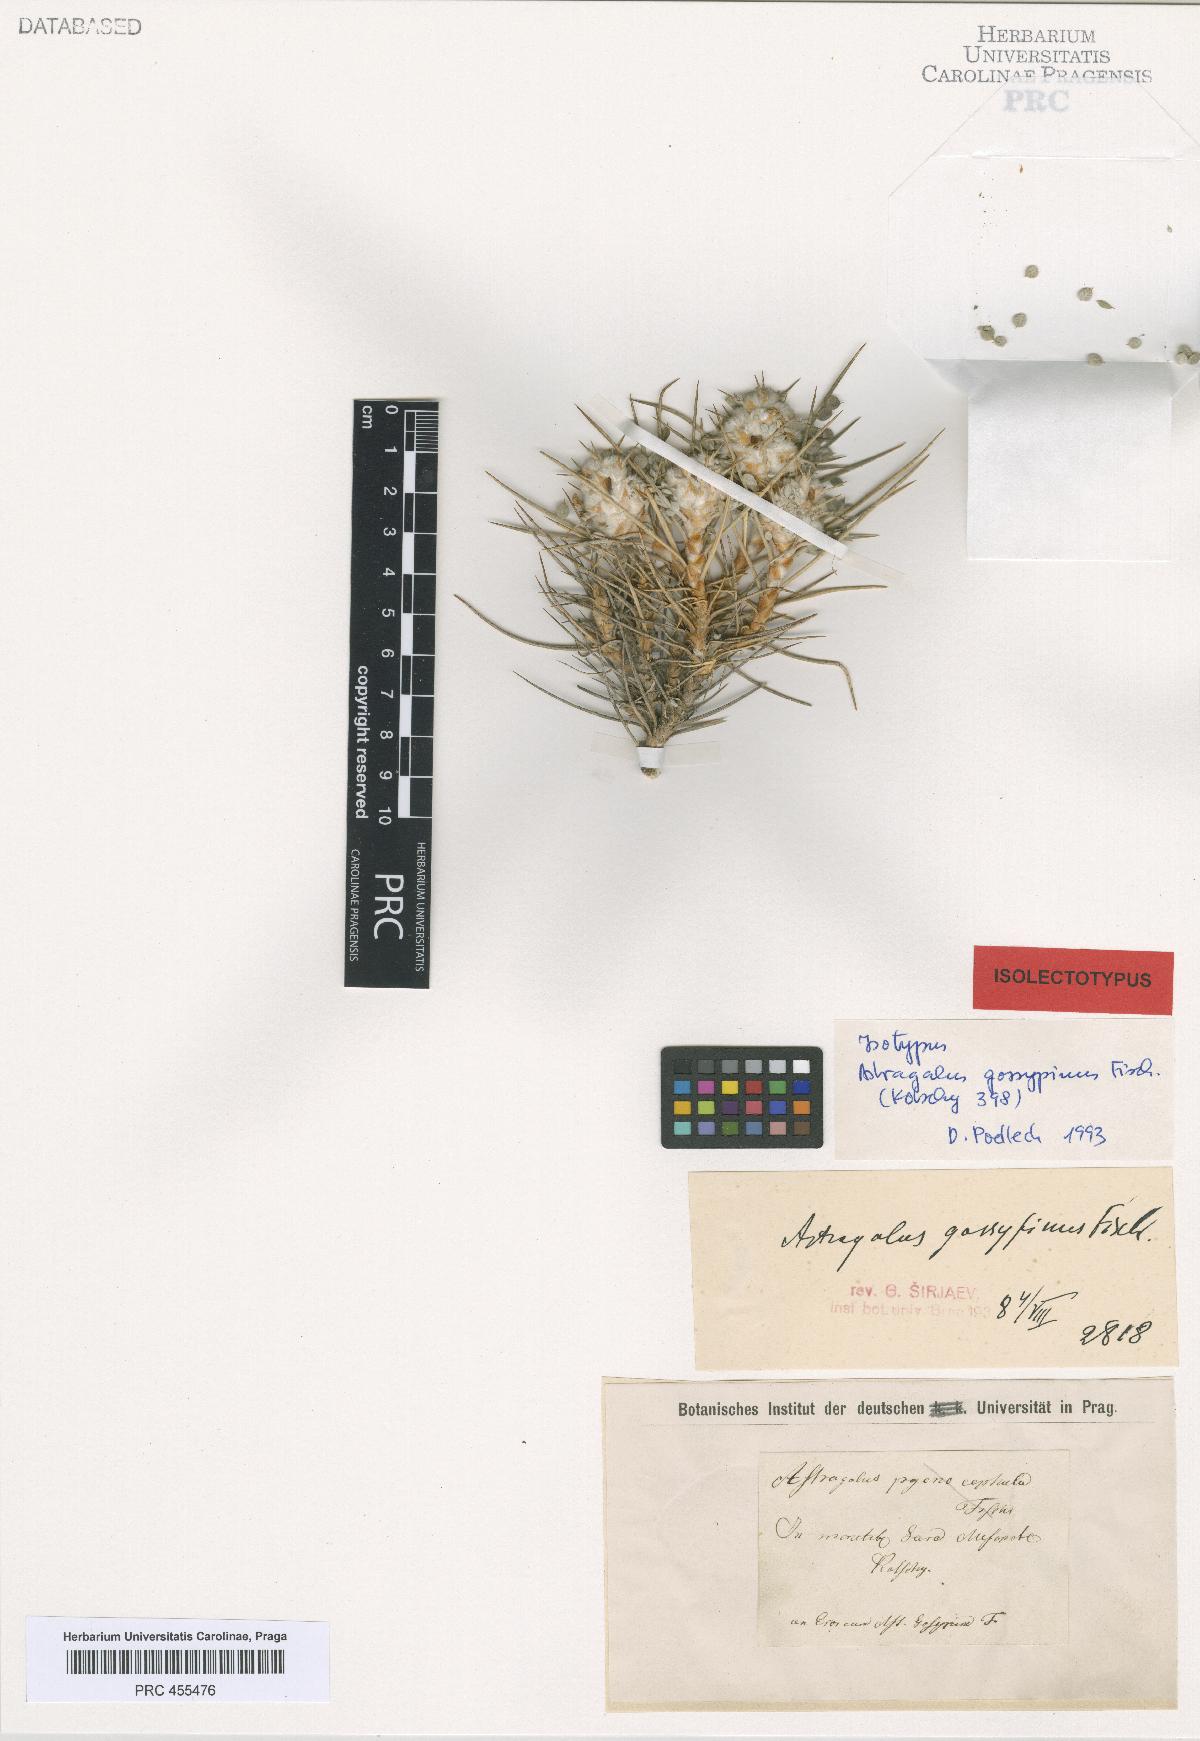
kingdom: Plantae
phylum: Tracheophyta
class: Magnoliopsida
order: Fabales
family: Fabaceae
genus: Astragalus
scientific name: Astragalus gossypinus
